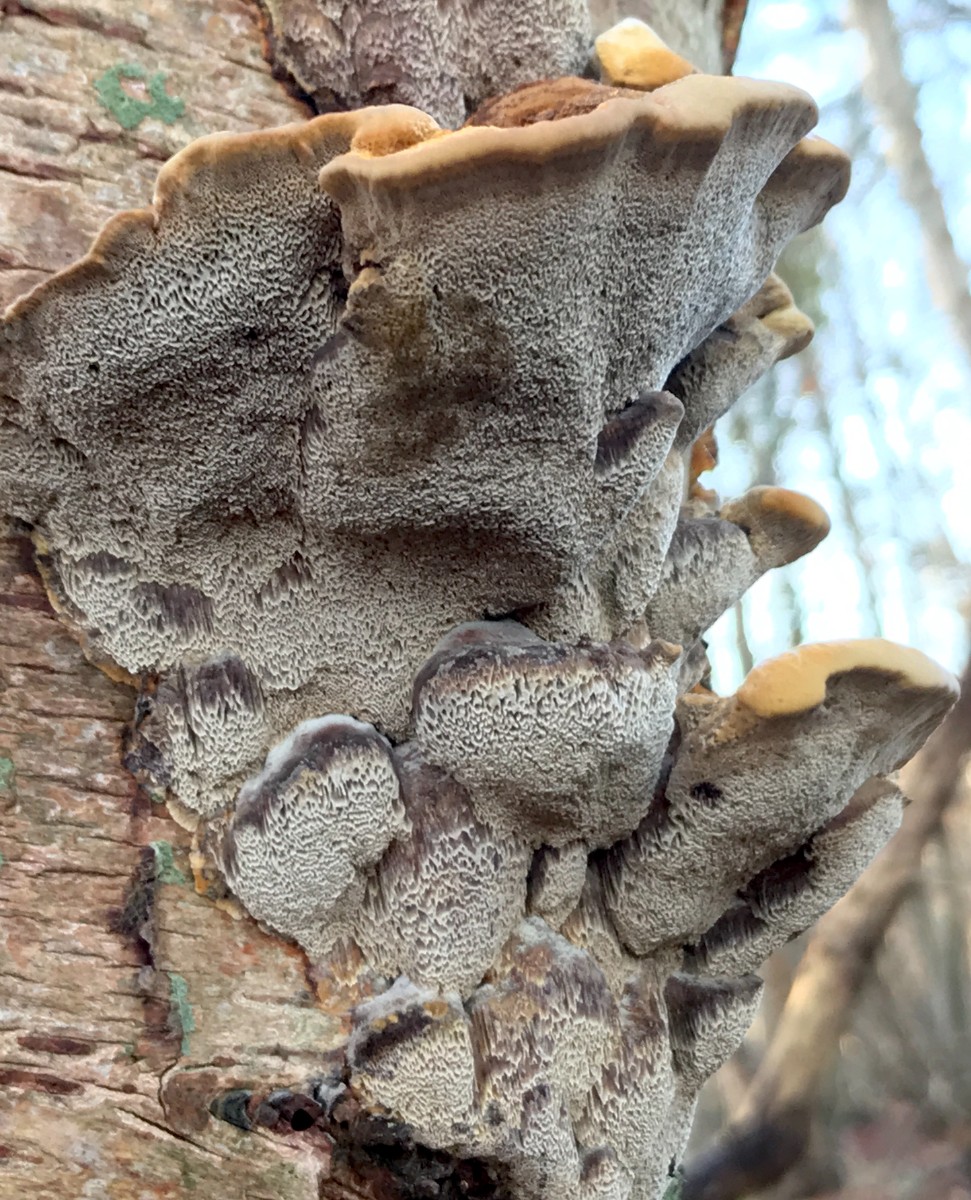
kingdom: Fungi
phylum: Basidiomycota
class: Agaricomycetes
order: Hymenochaetales
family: Hymenochaetaceae
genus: Xanthoporia
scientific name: Xanthoporia radiata
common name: elle-spejlporesvamp
